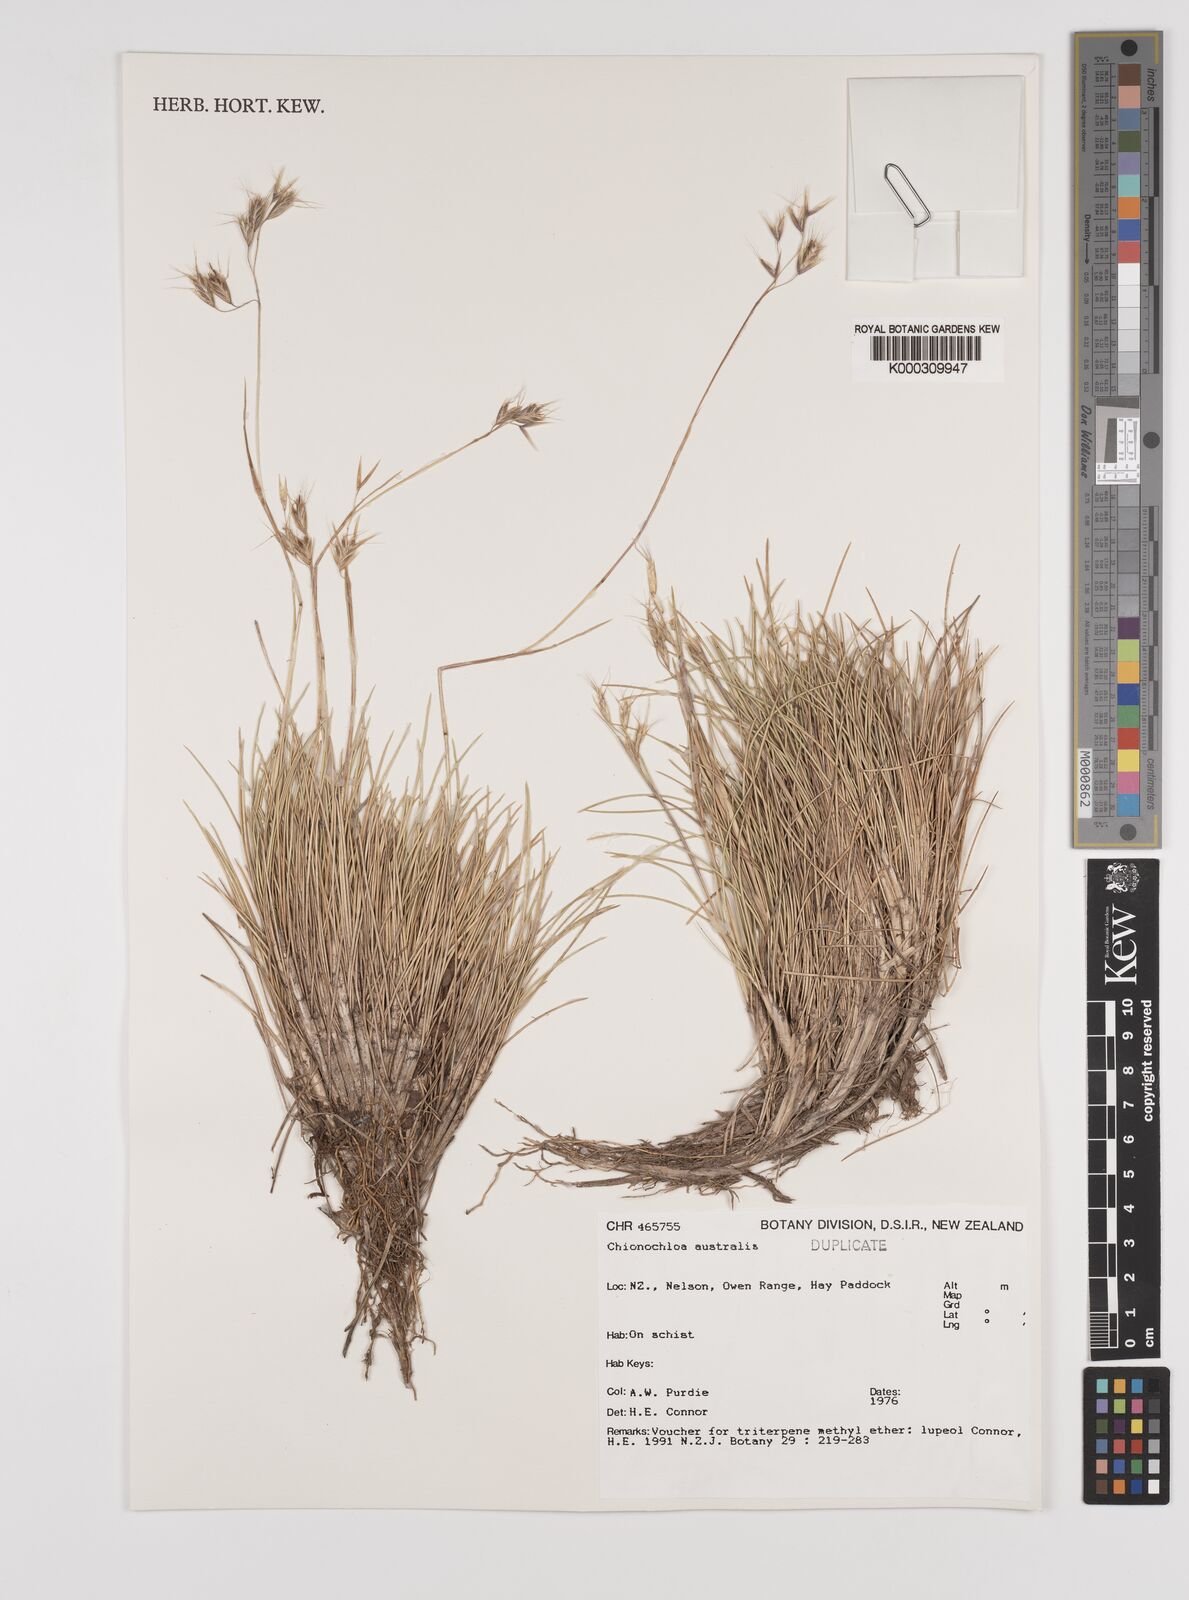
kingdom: Plantae
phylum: Tracheophyta
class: Liliopsida
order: Poales
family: Poaceae
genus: Chionochloa
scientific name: Chionochloa australis
